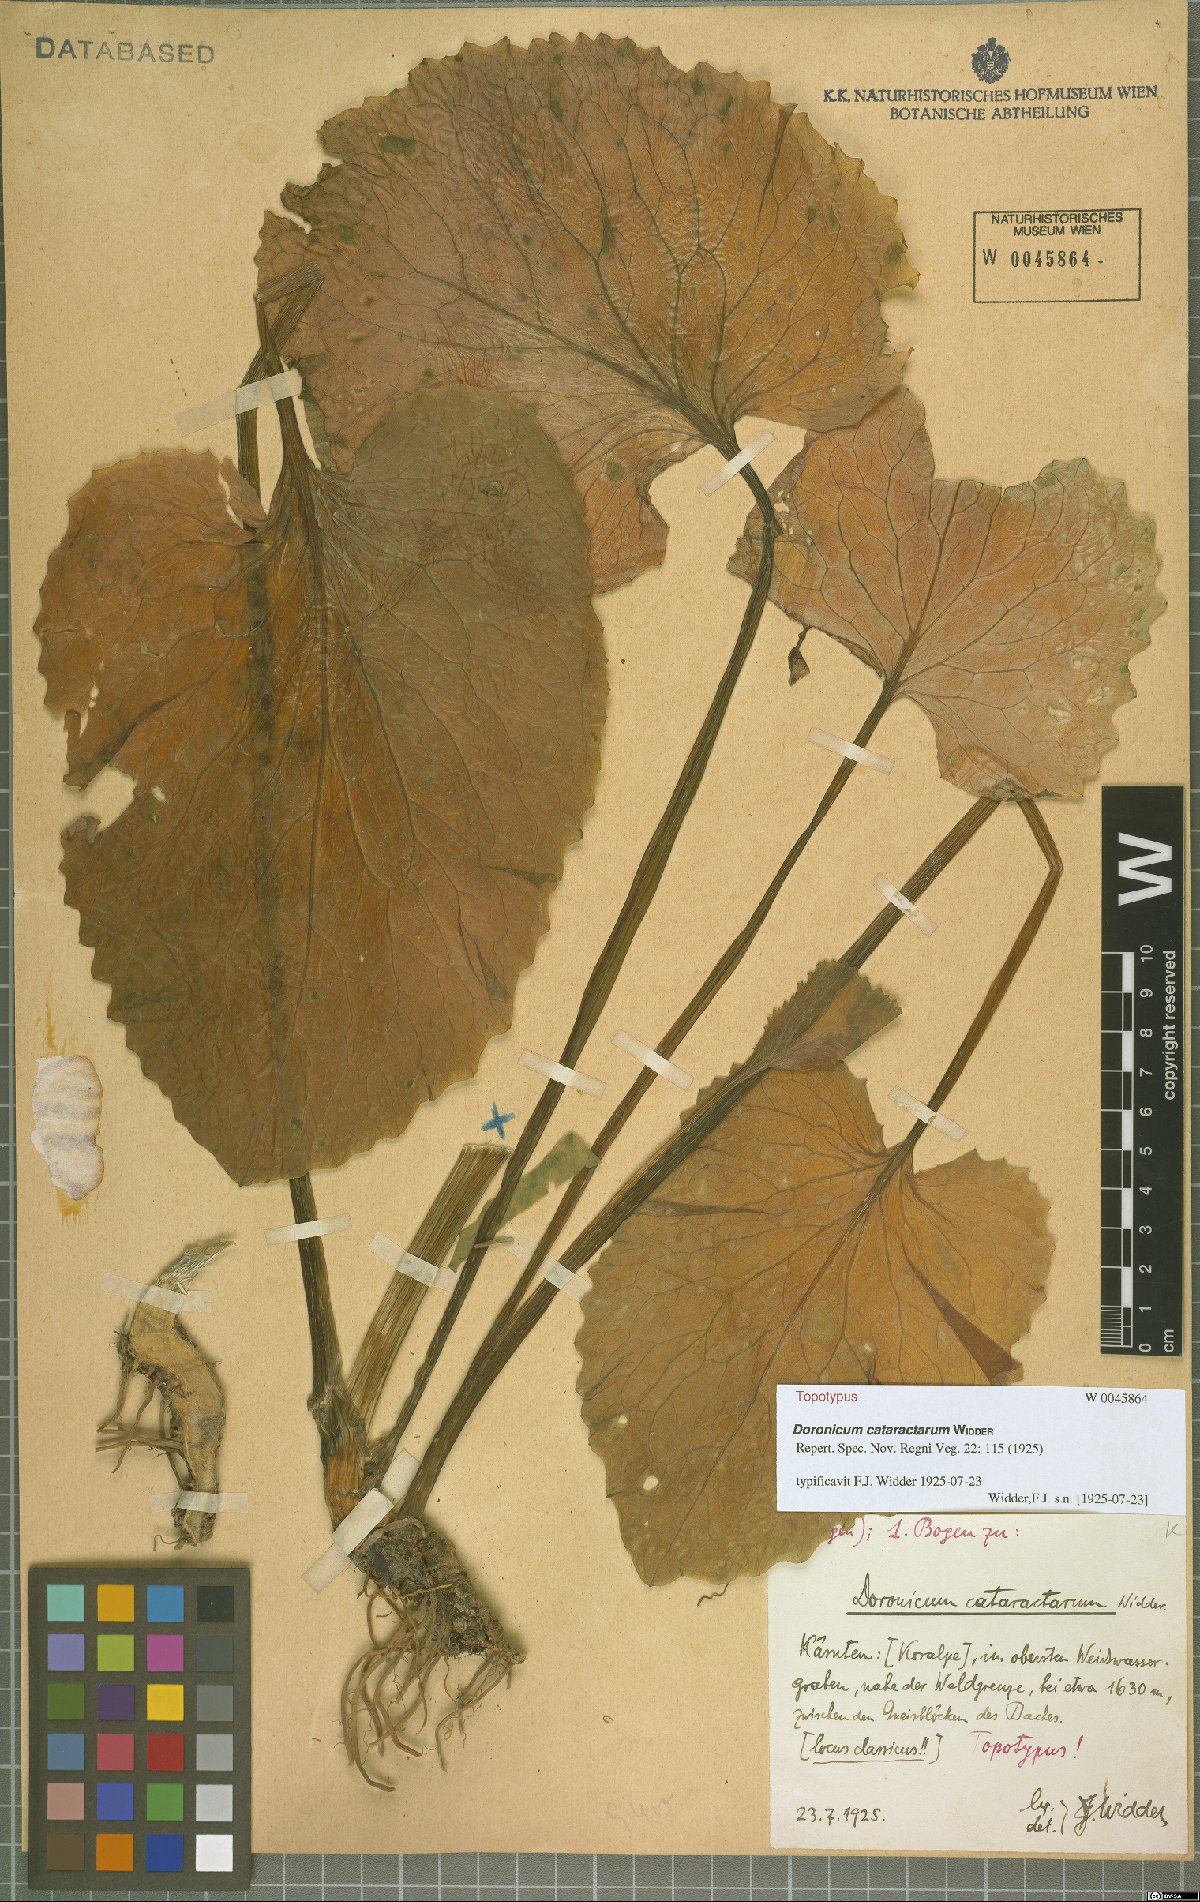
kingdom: Plantae
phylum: Tracheophyta
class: Magnoliopsida
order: Asterales
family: Asteraceae
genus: Doronicum
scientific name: Doronicum cataractarum
